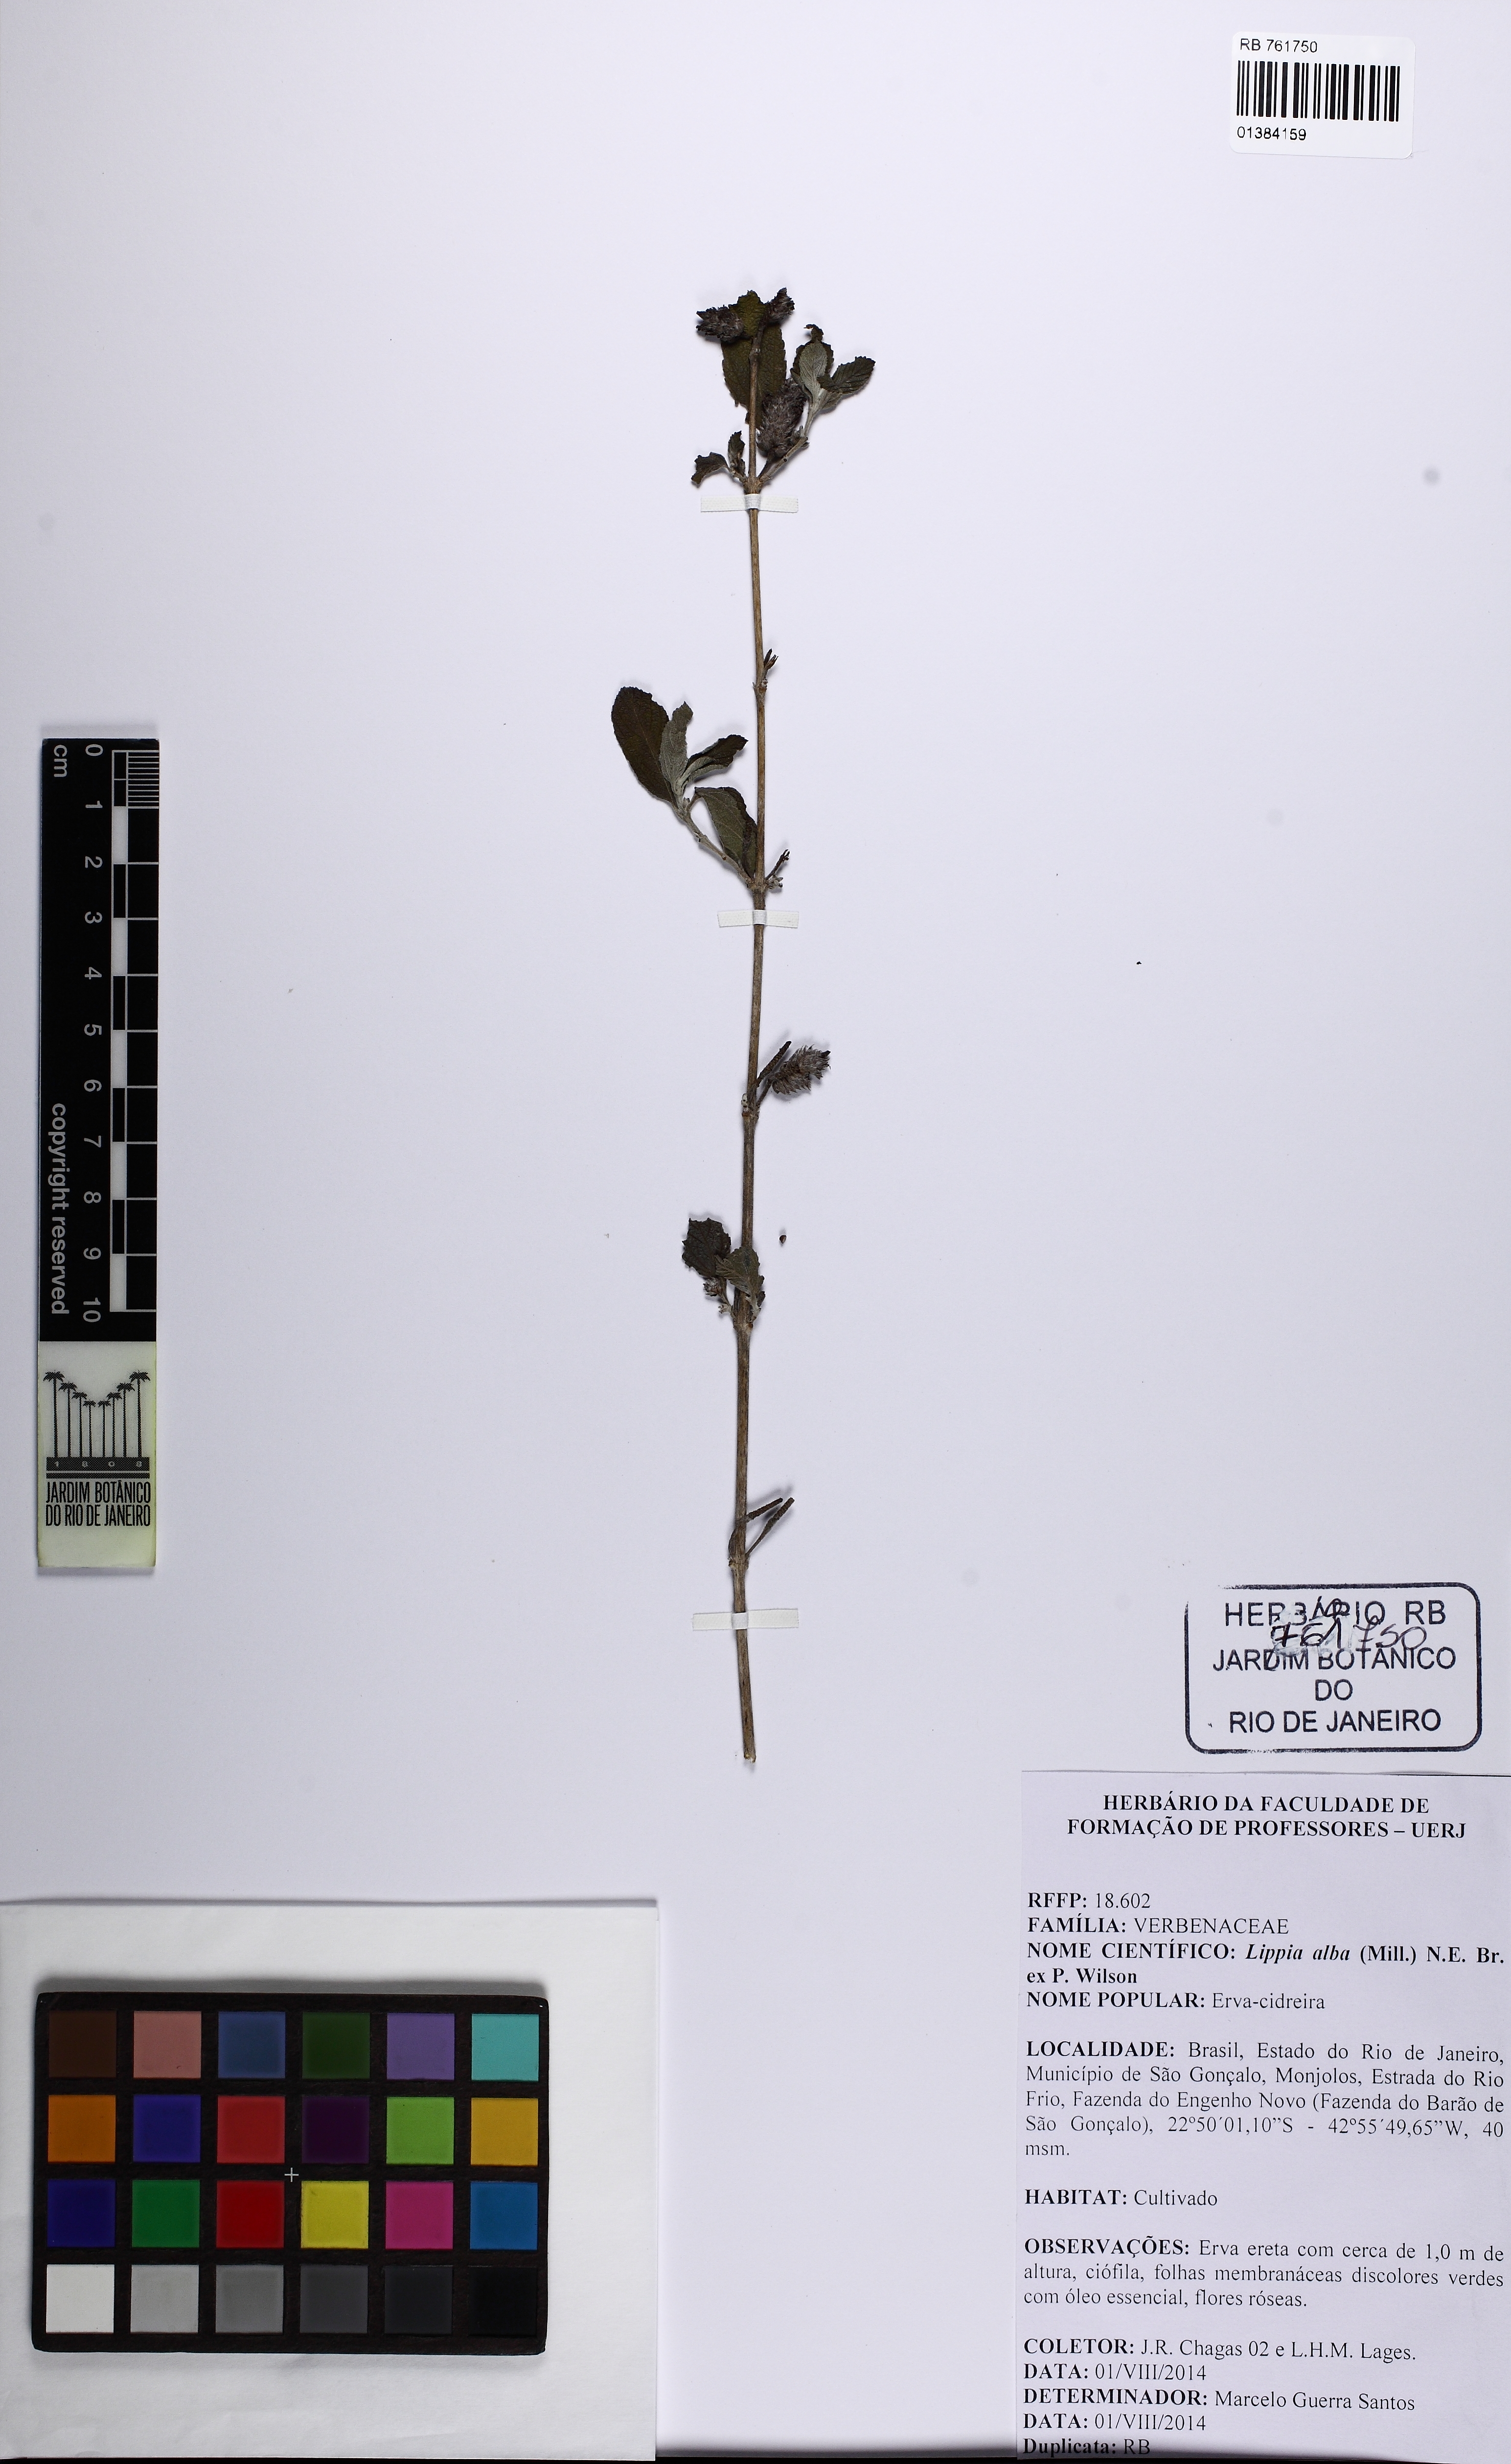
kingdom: Plantae
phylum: Tracheophyta
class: Magnoliopsida
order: Lamiales
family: Verbenaceae
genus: Lippia
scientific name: Lippia alba
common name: Bushy matgrass
